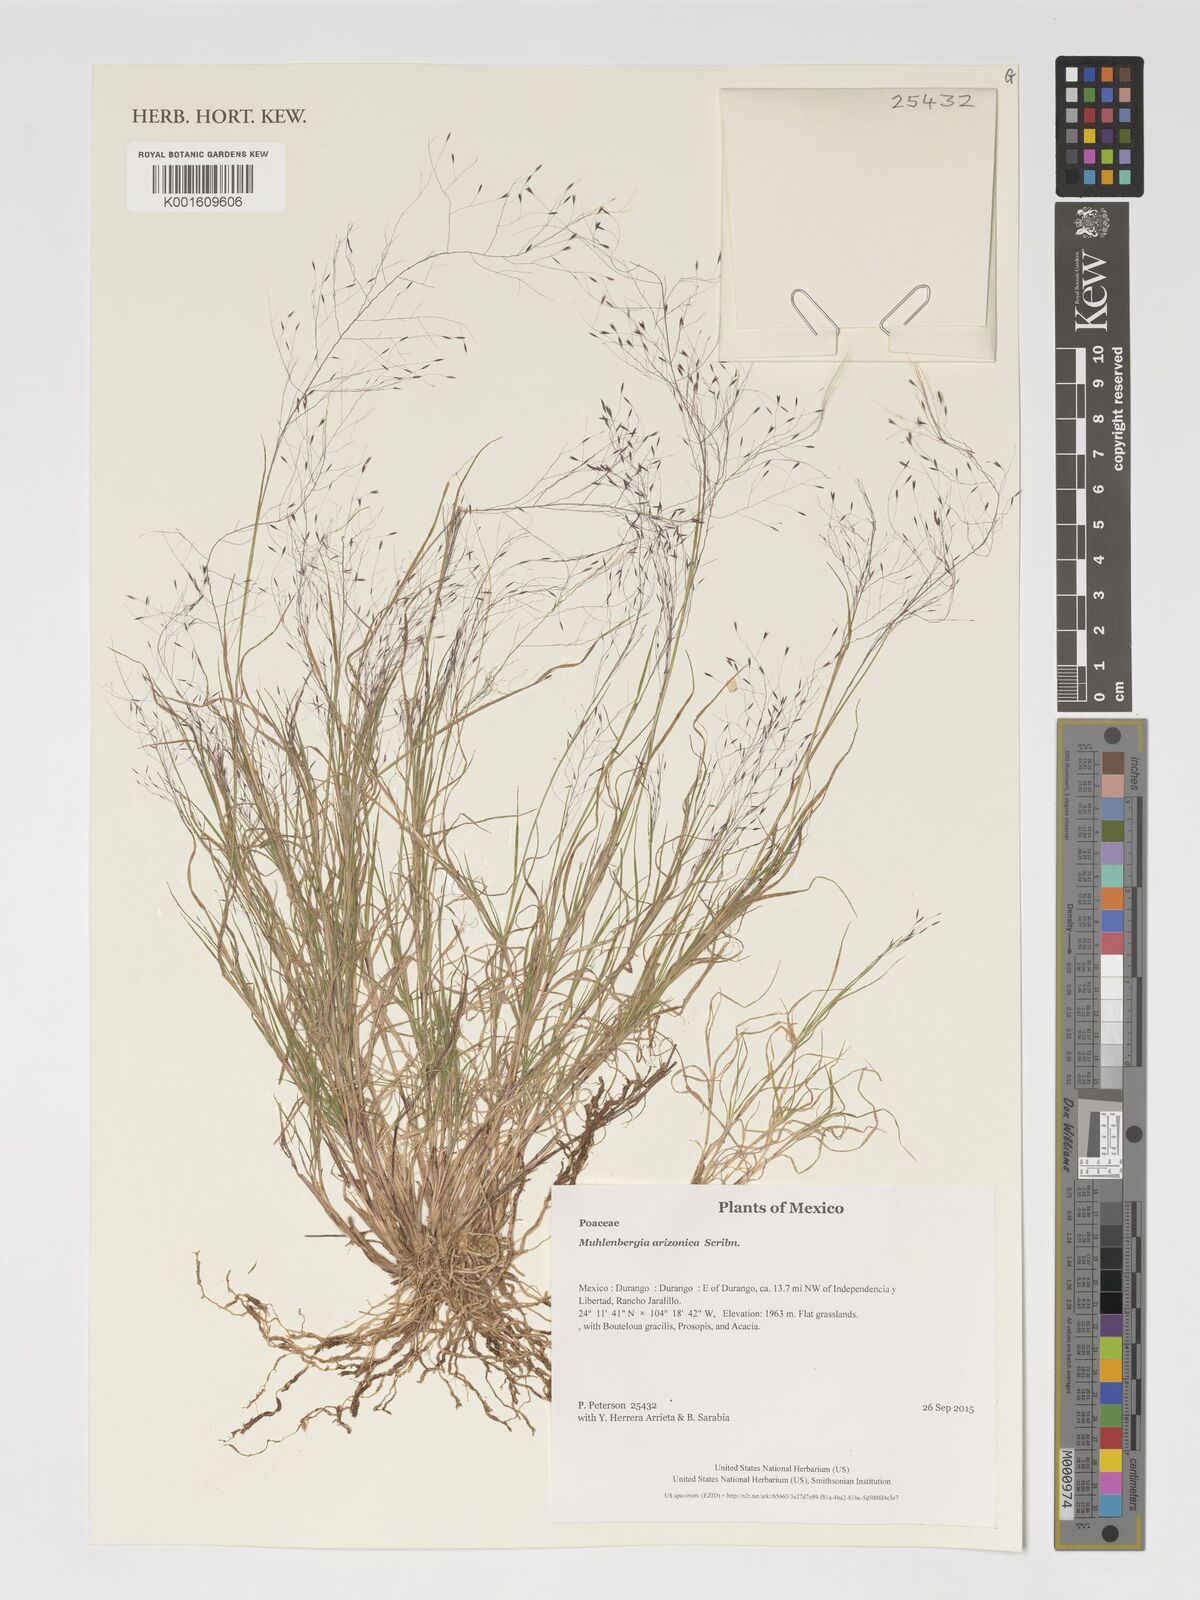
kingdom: Plantae
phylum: Tracheophyta
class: Liliopsida
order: Poales
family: Poaceae
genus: Muhlenbergia
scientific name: Muhlenbergia arizonica
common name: Arizona muhly
